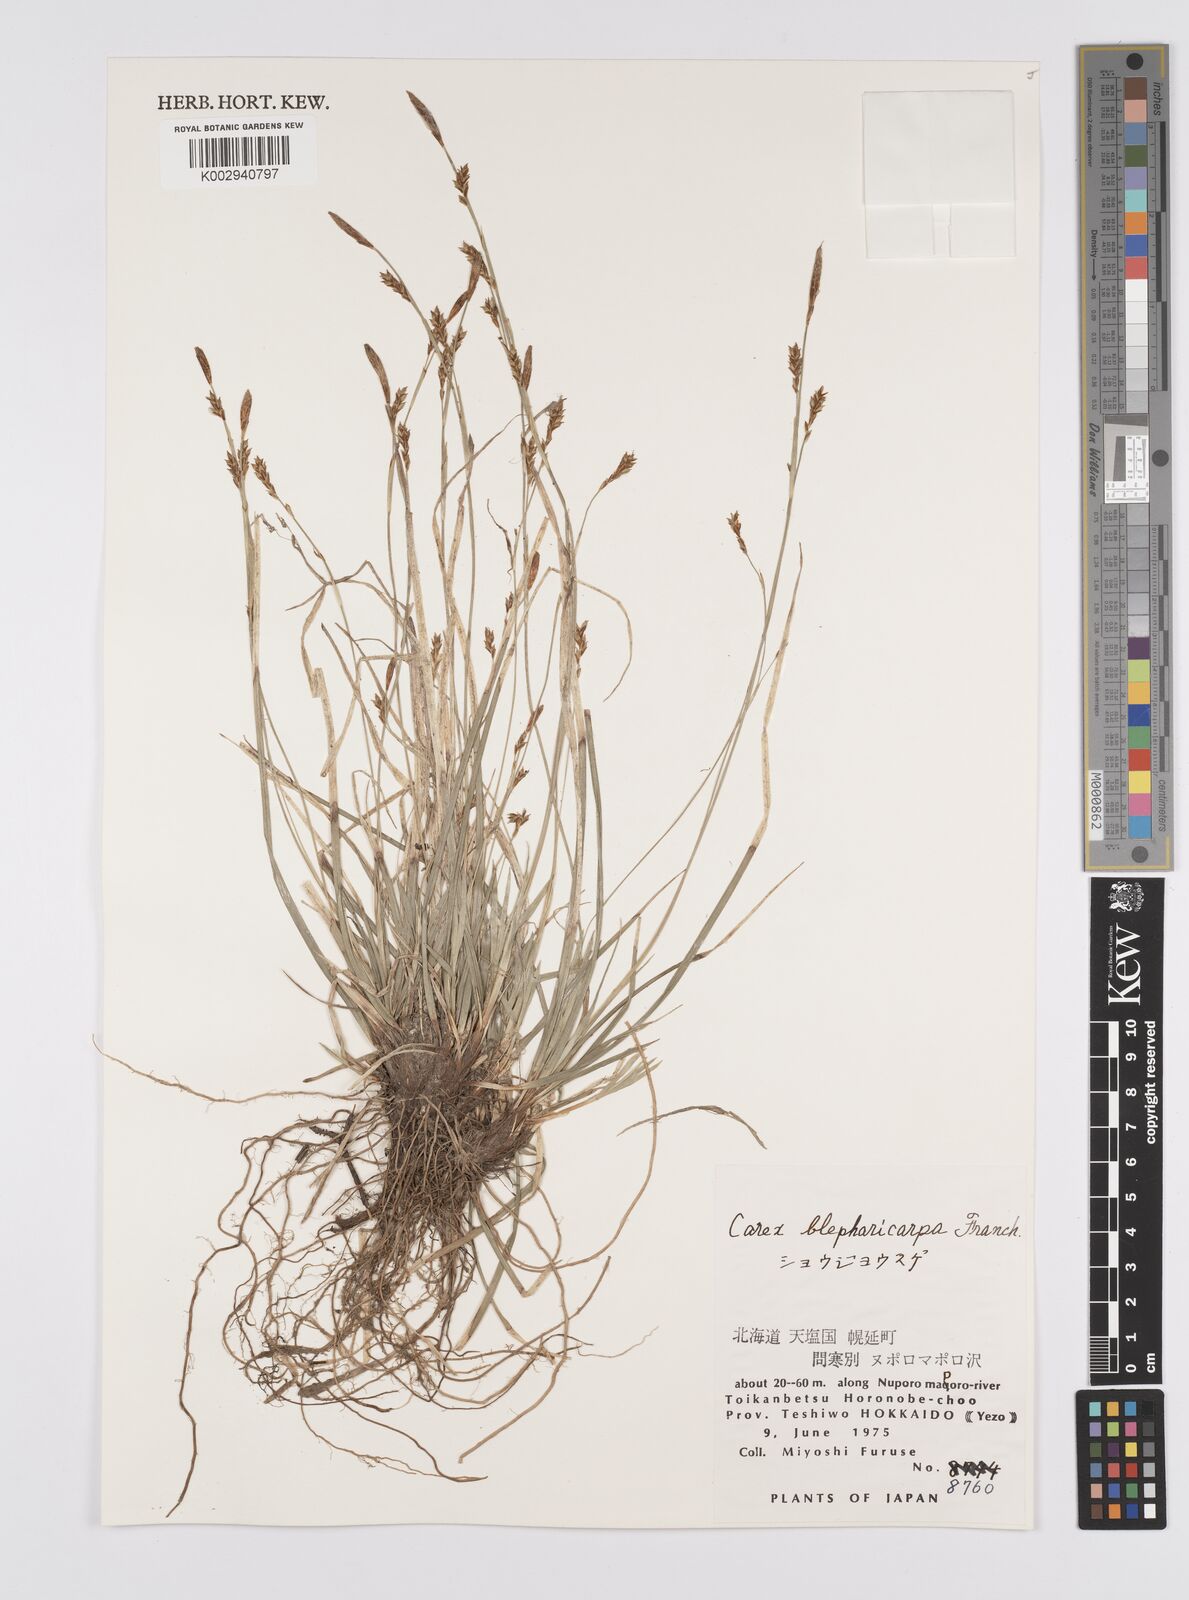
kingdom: Plantae
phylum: Tracheophyta
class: Liliopsida
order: Poales
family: Cyperaceae
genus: Carex
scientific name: Carex blepharicarpa
